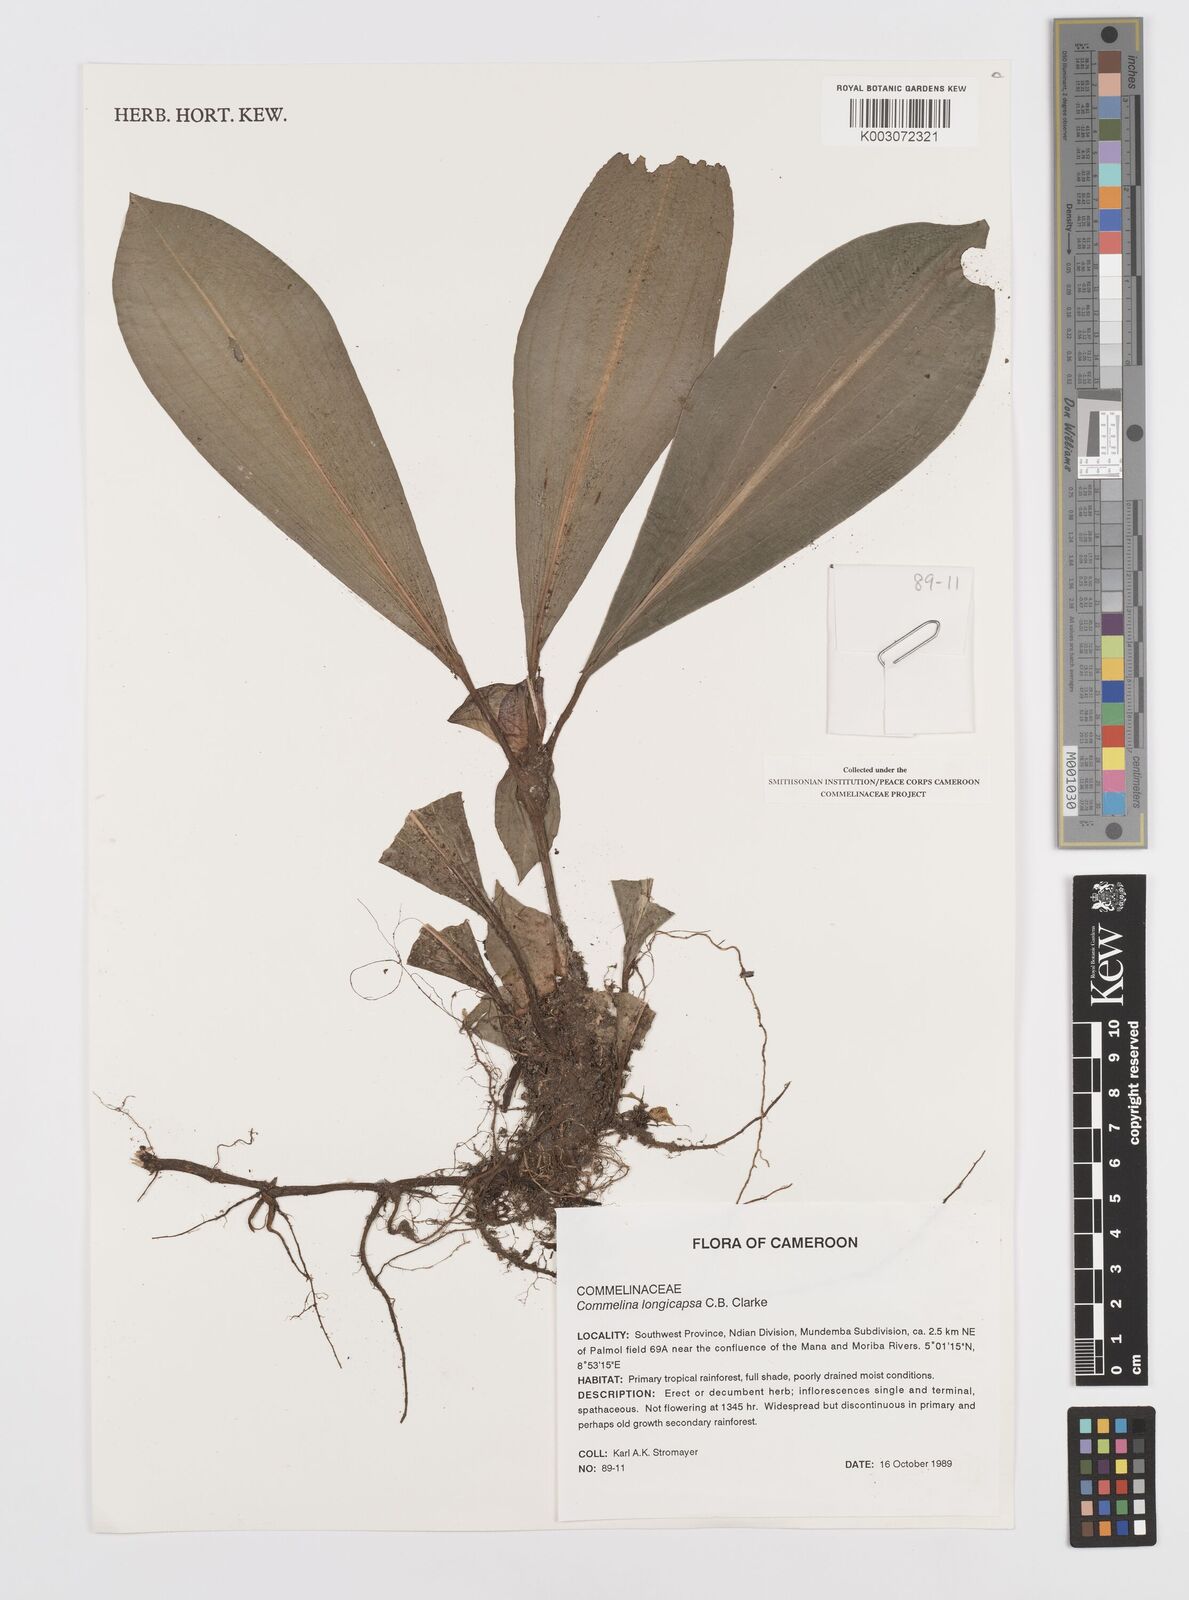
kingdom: Plantae
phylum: Tracheophyta
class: Liliopsida
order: Commelinales
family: Commelinaceae
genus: Commelina
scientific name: Commelina longicapsa
